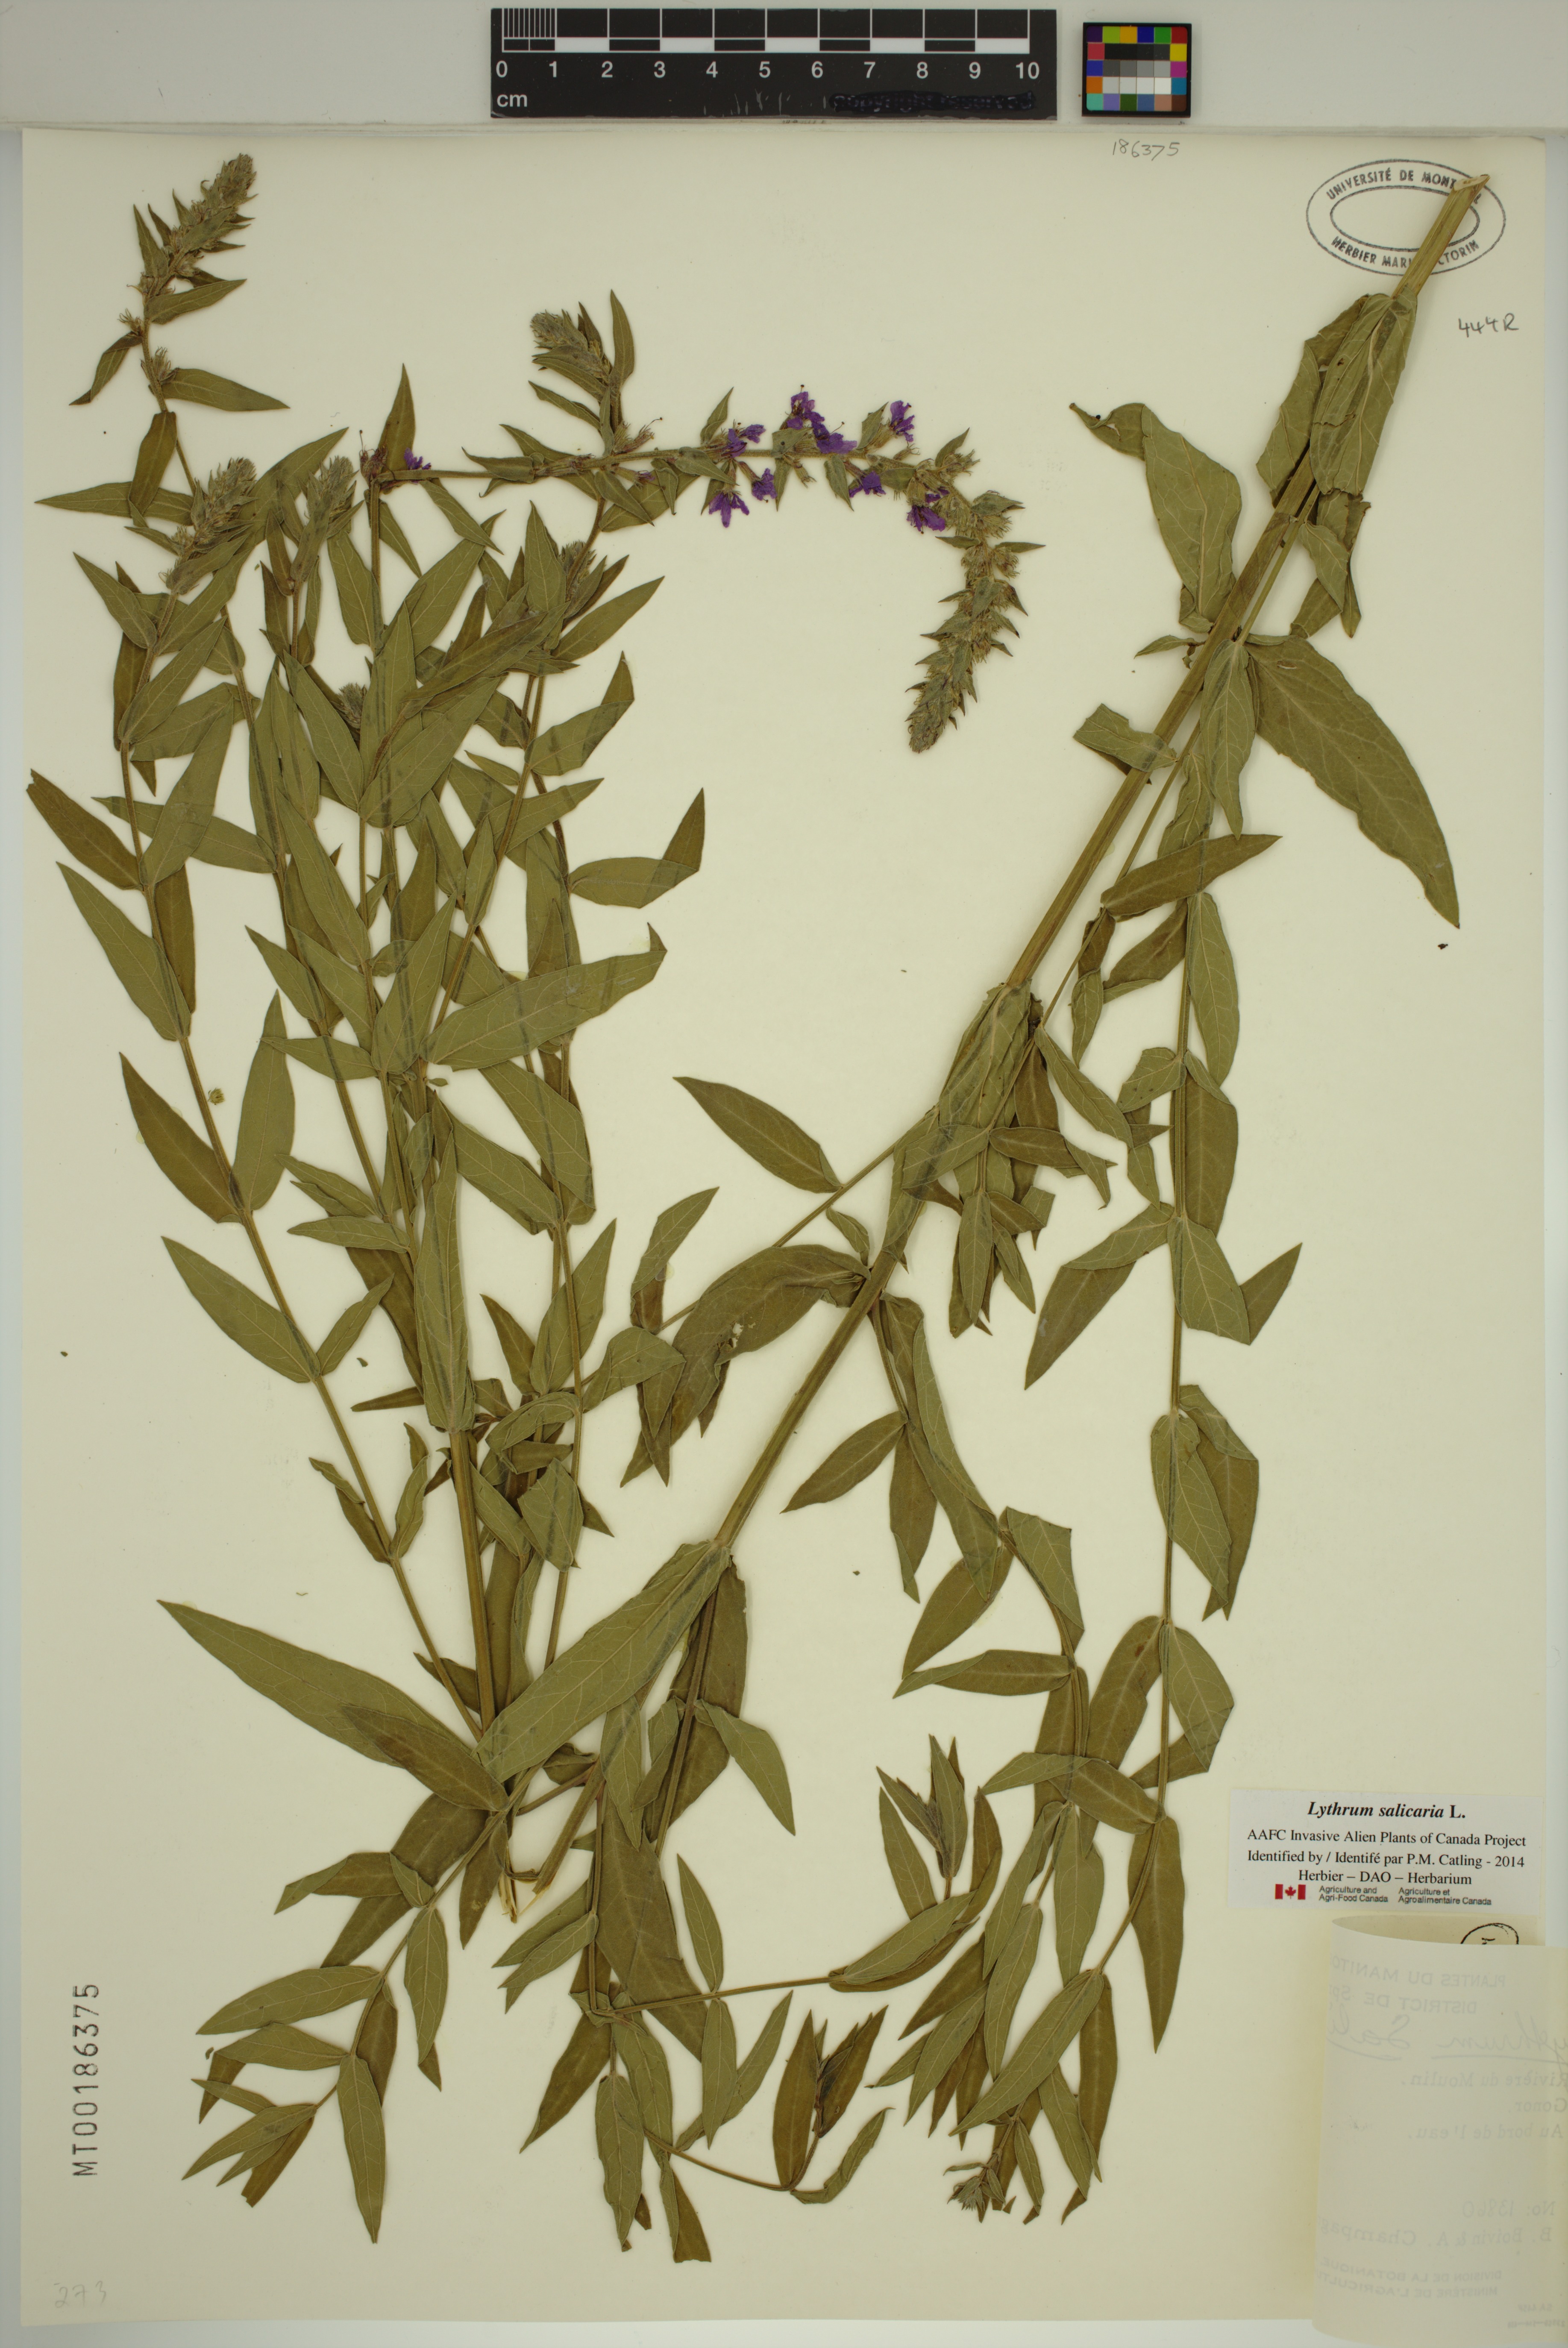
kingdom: Plantae
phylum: Tracheophyta
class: Magnoliopsida
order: Myrtales
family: Lythraceae
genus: Lythrum
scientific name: Lythrum salicaria
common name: Purple loosestrife
